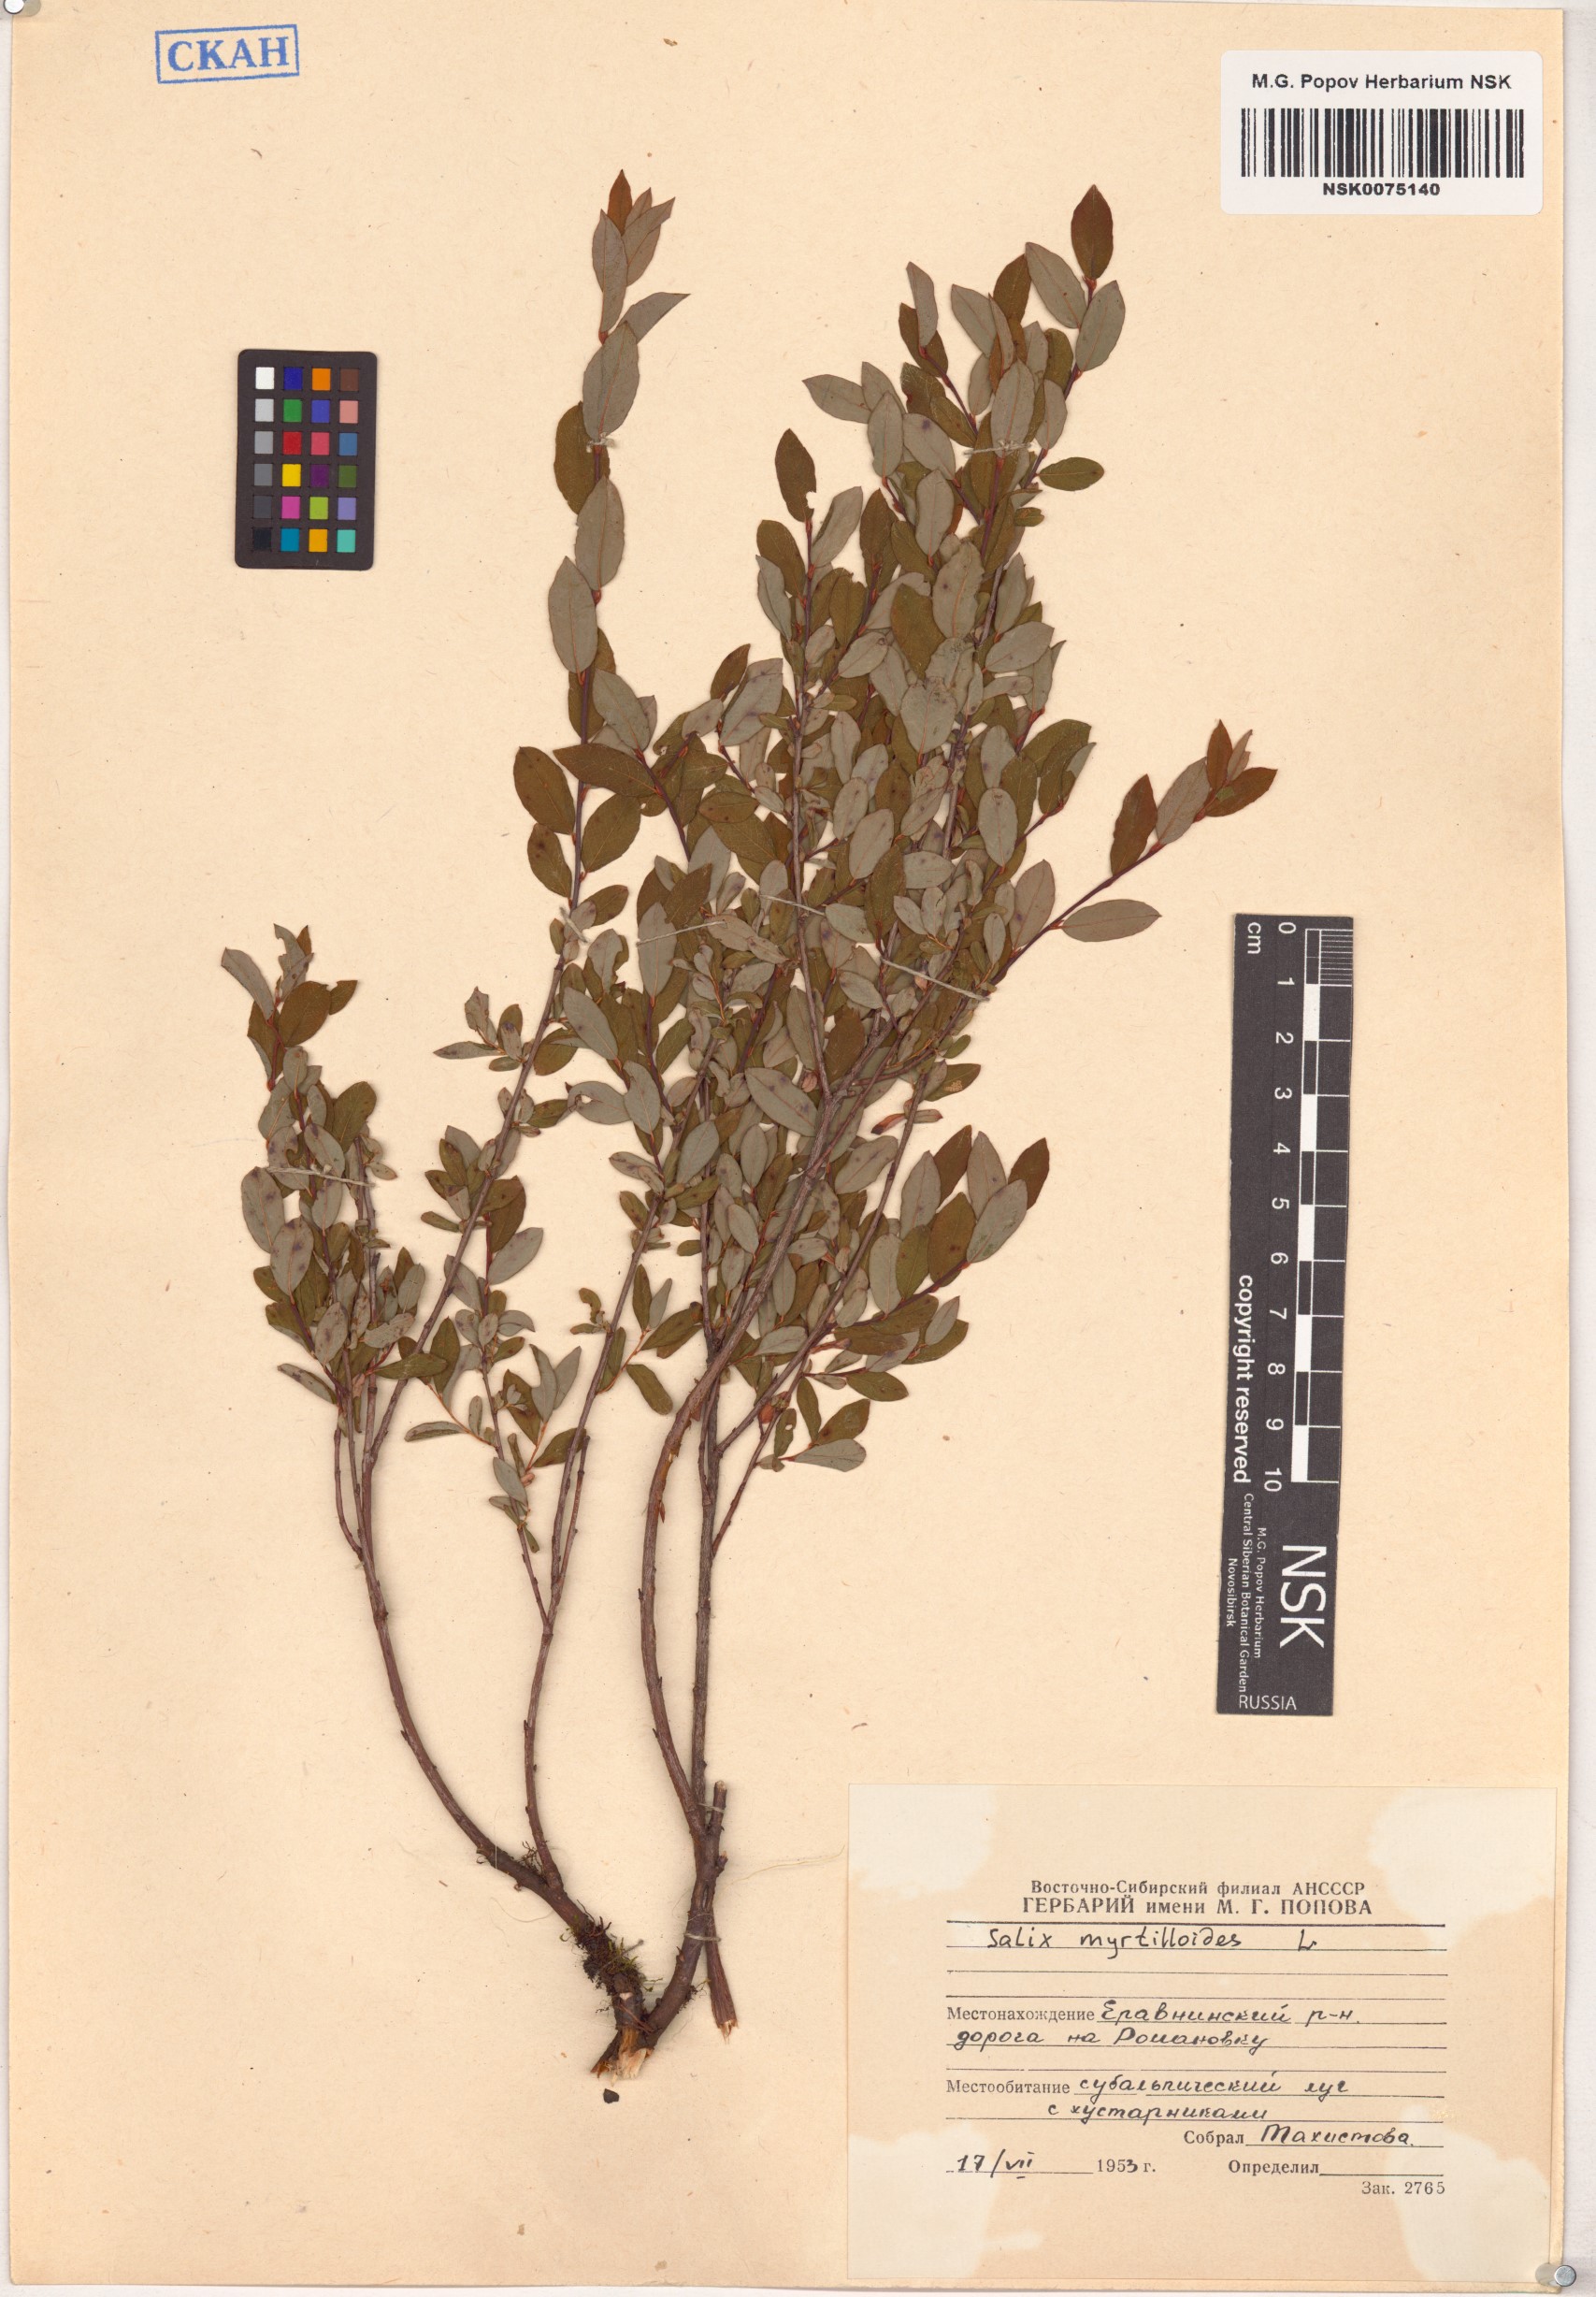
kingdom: Plantae
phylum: Tracheophyta
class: Magnoliopsida
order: Malpighiales
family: Salicaceae
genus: Salix
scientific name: Salix myrtilloides
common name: Myrtle-leaved willow
